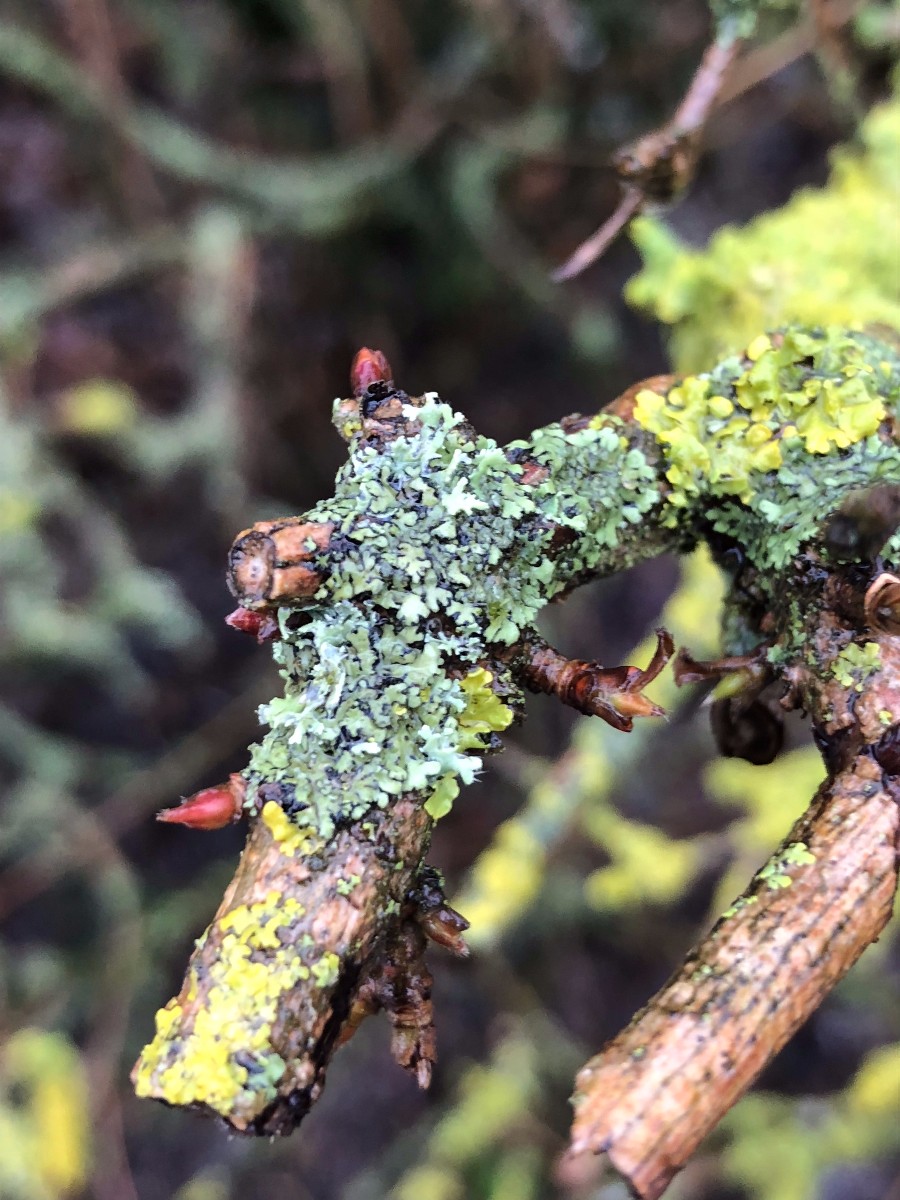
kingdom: Fungi
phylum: Ascomycota
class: Lecanoromycetes
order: Caliciales
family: Physciaceae
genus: Phaeophyscia
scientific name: Phaeophyscia orbicularis
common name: grågrøn rosetlav
